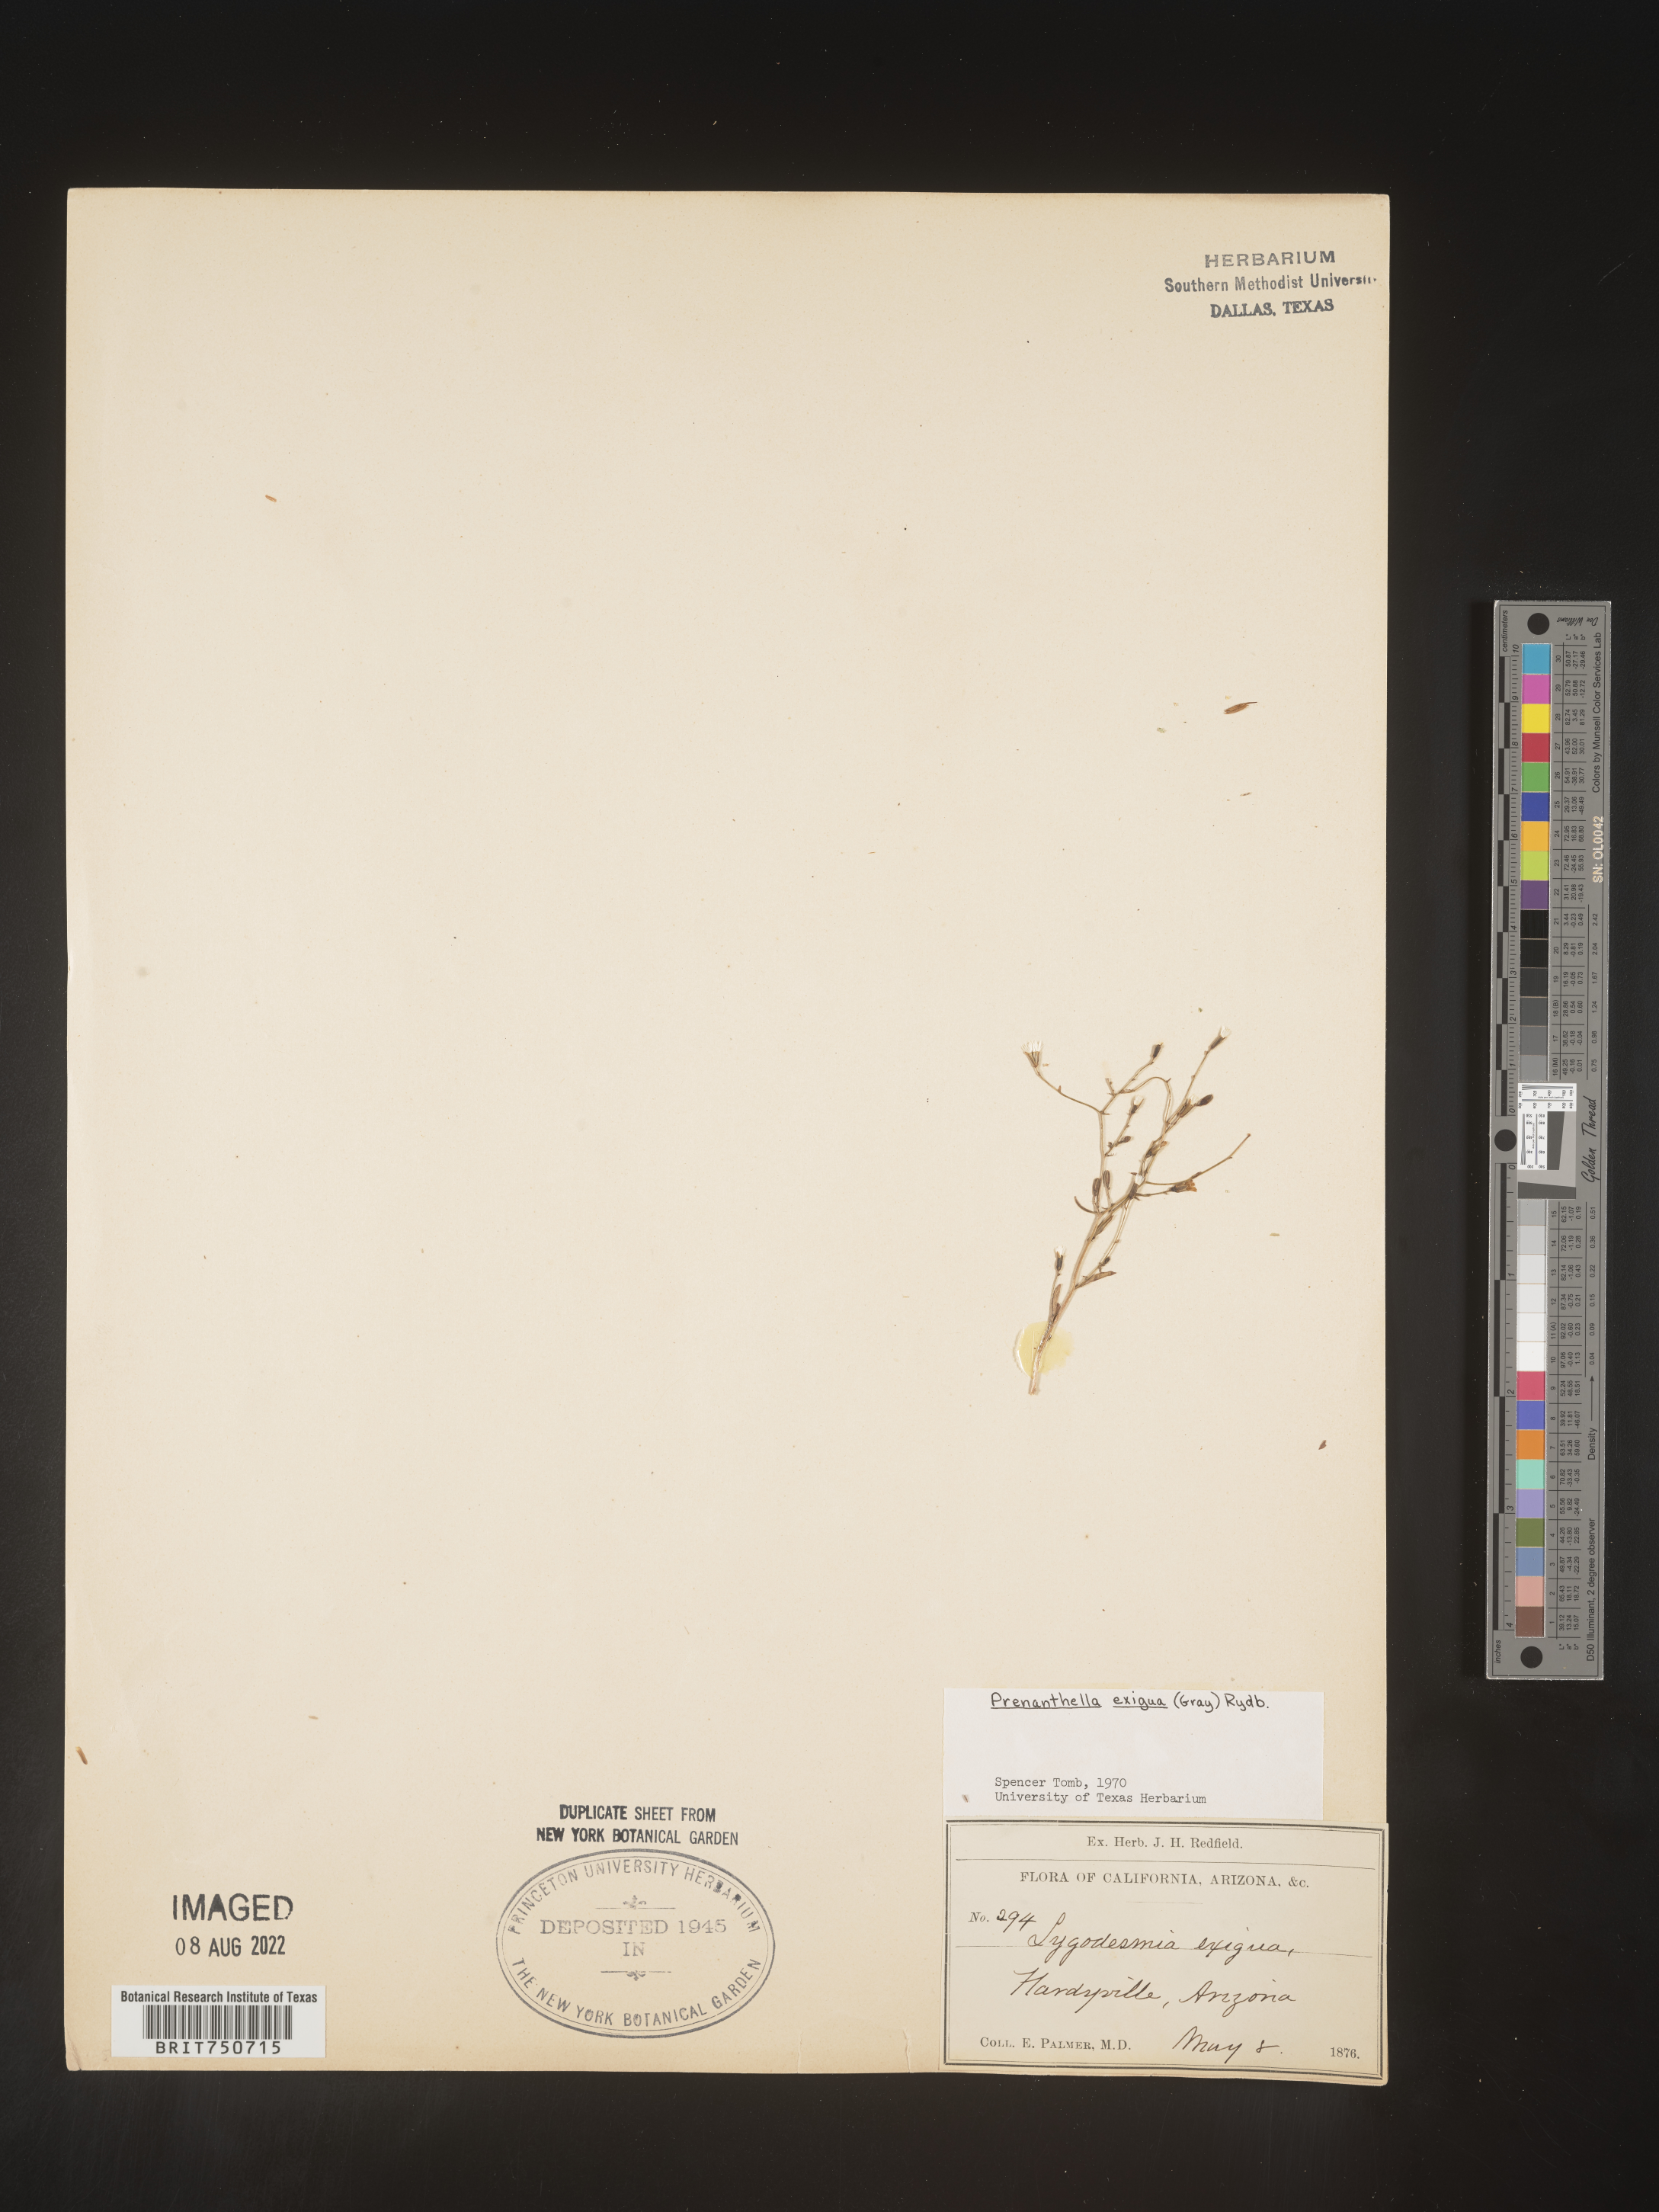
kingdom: Plantae
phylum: Tracheophyta
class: Magnoliopsida
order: Asterales
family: Asteraceae
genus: Stephanomeria
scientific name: Stephanomeria exigua
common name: Small wirelettuce
